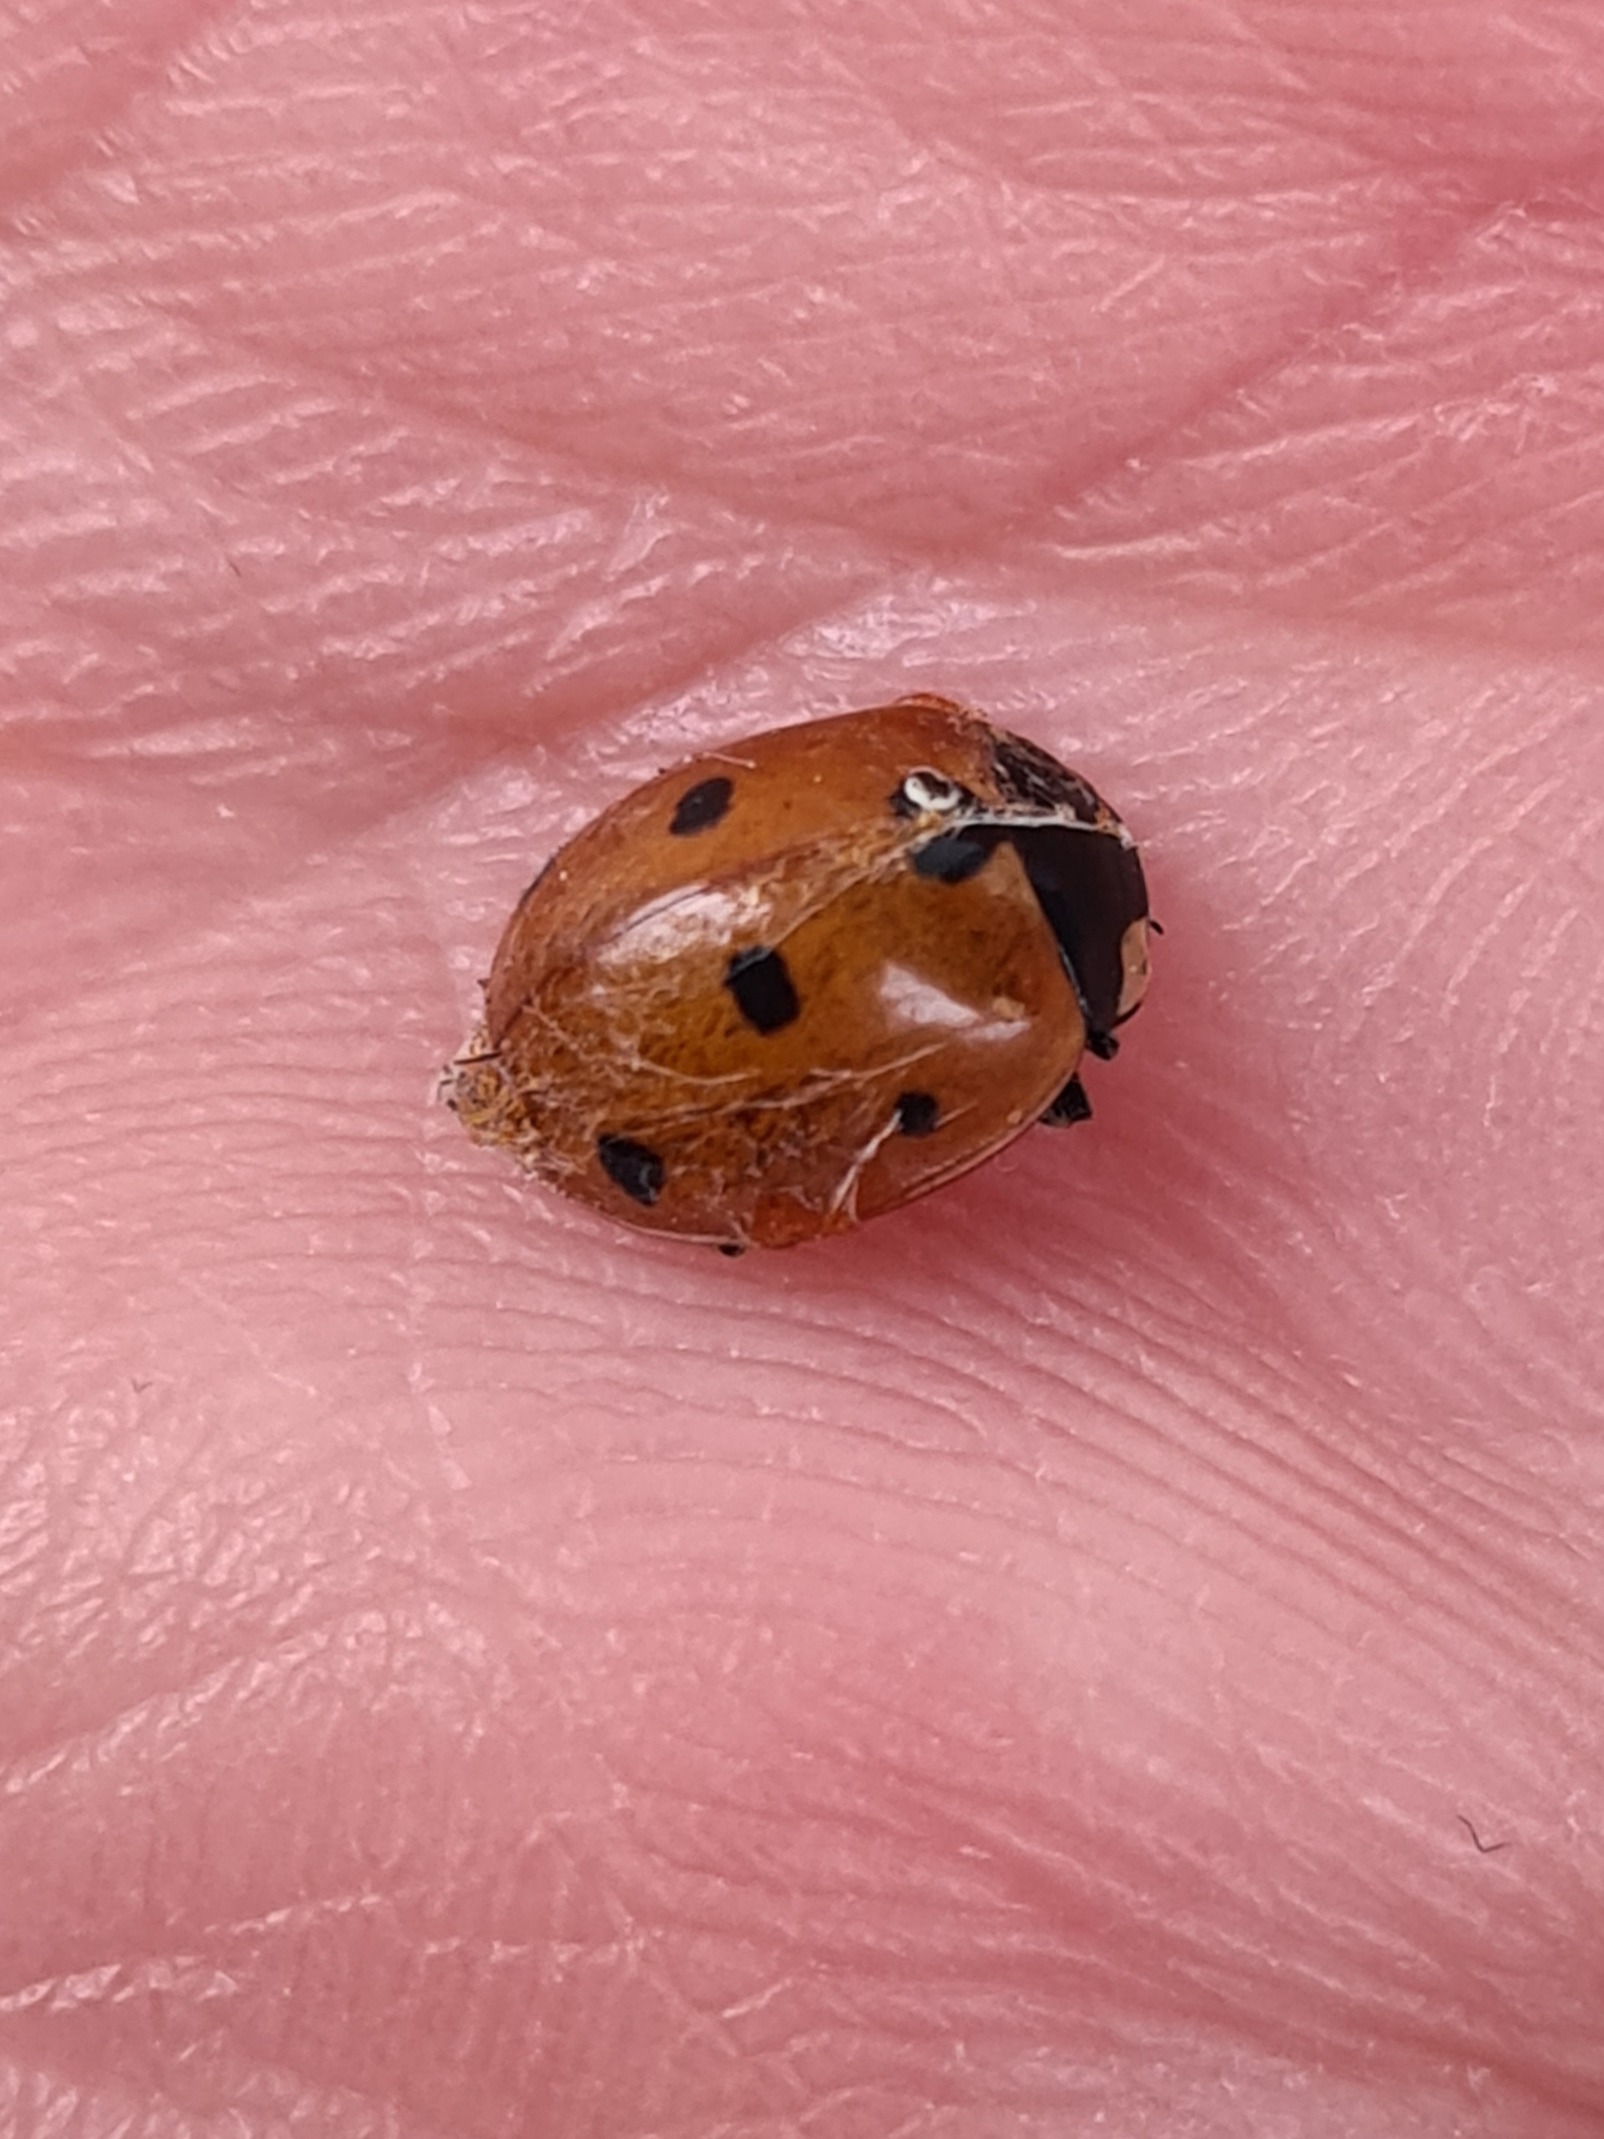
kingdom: Animalia
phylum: Arthropoda
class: Insecta
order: Coleoptera
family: Coccinellidae
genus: Coccinella
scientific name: Coccinella septempunctata
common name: Syvplettet mariehøne
